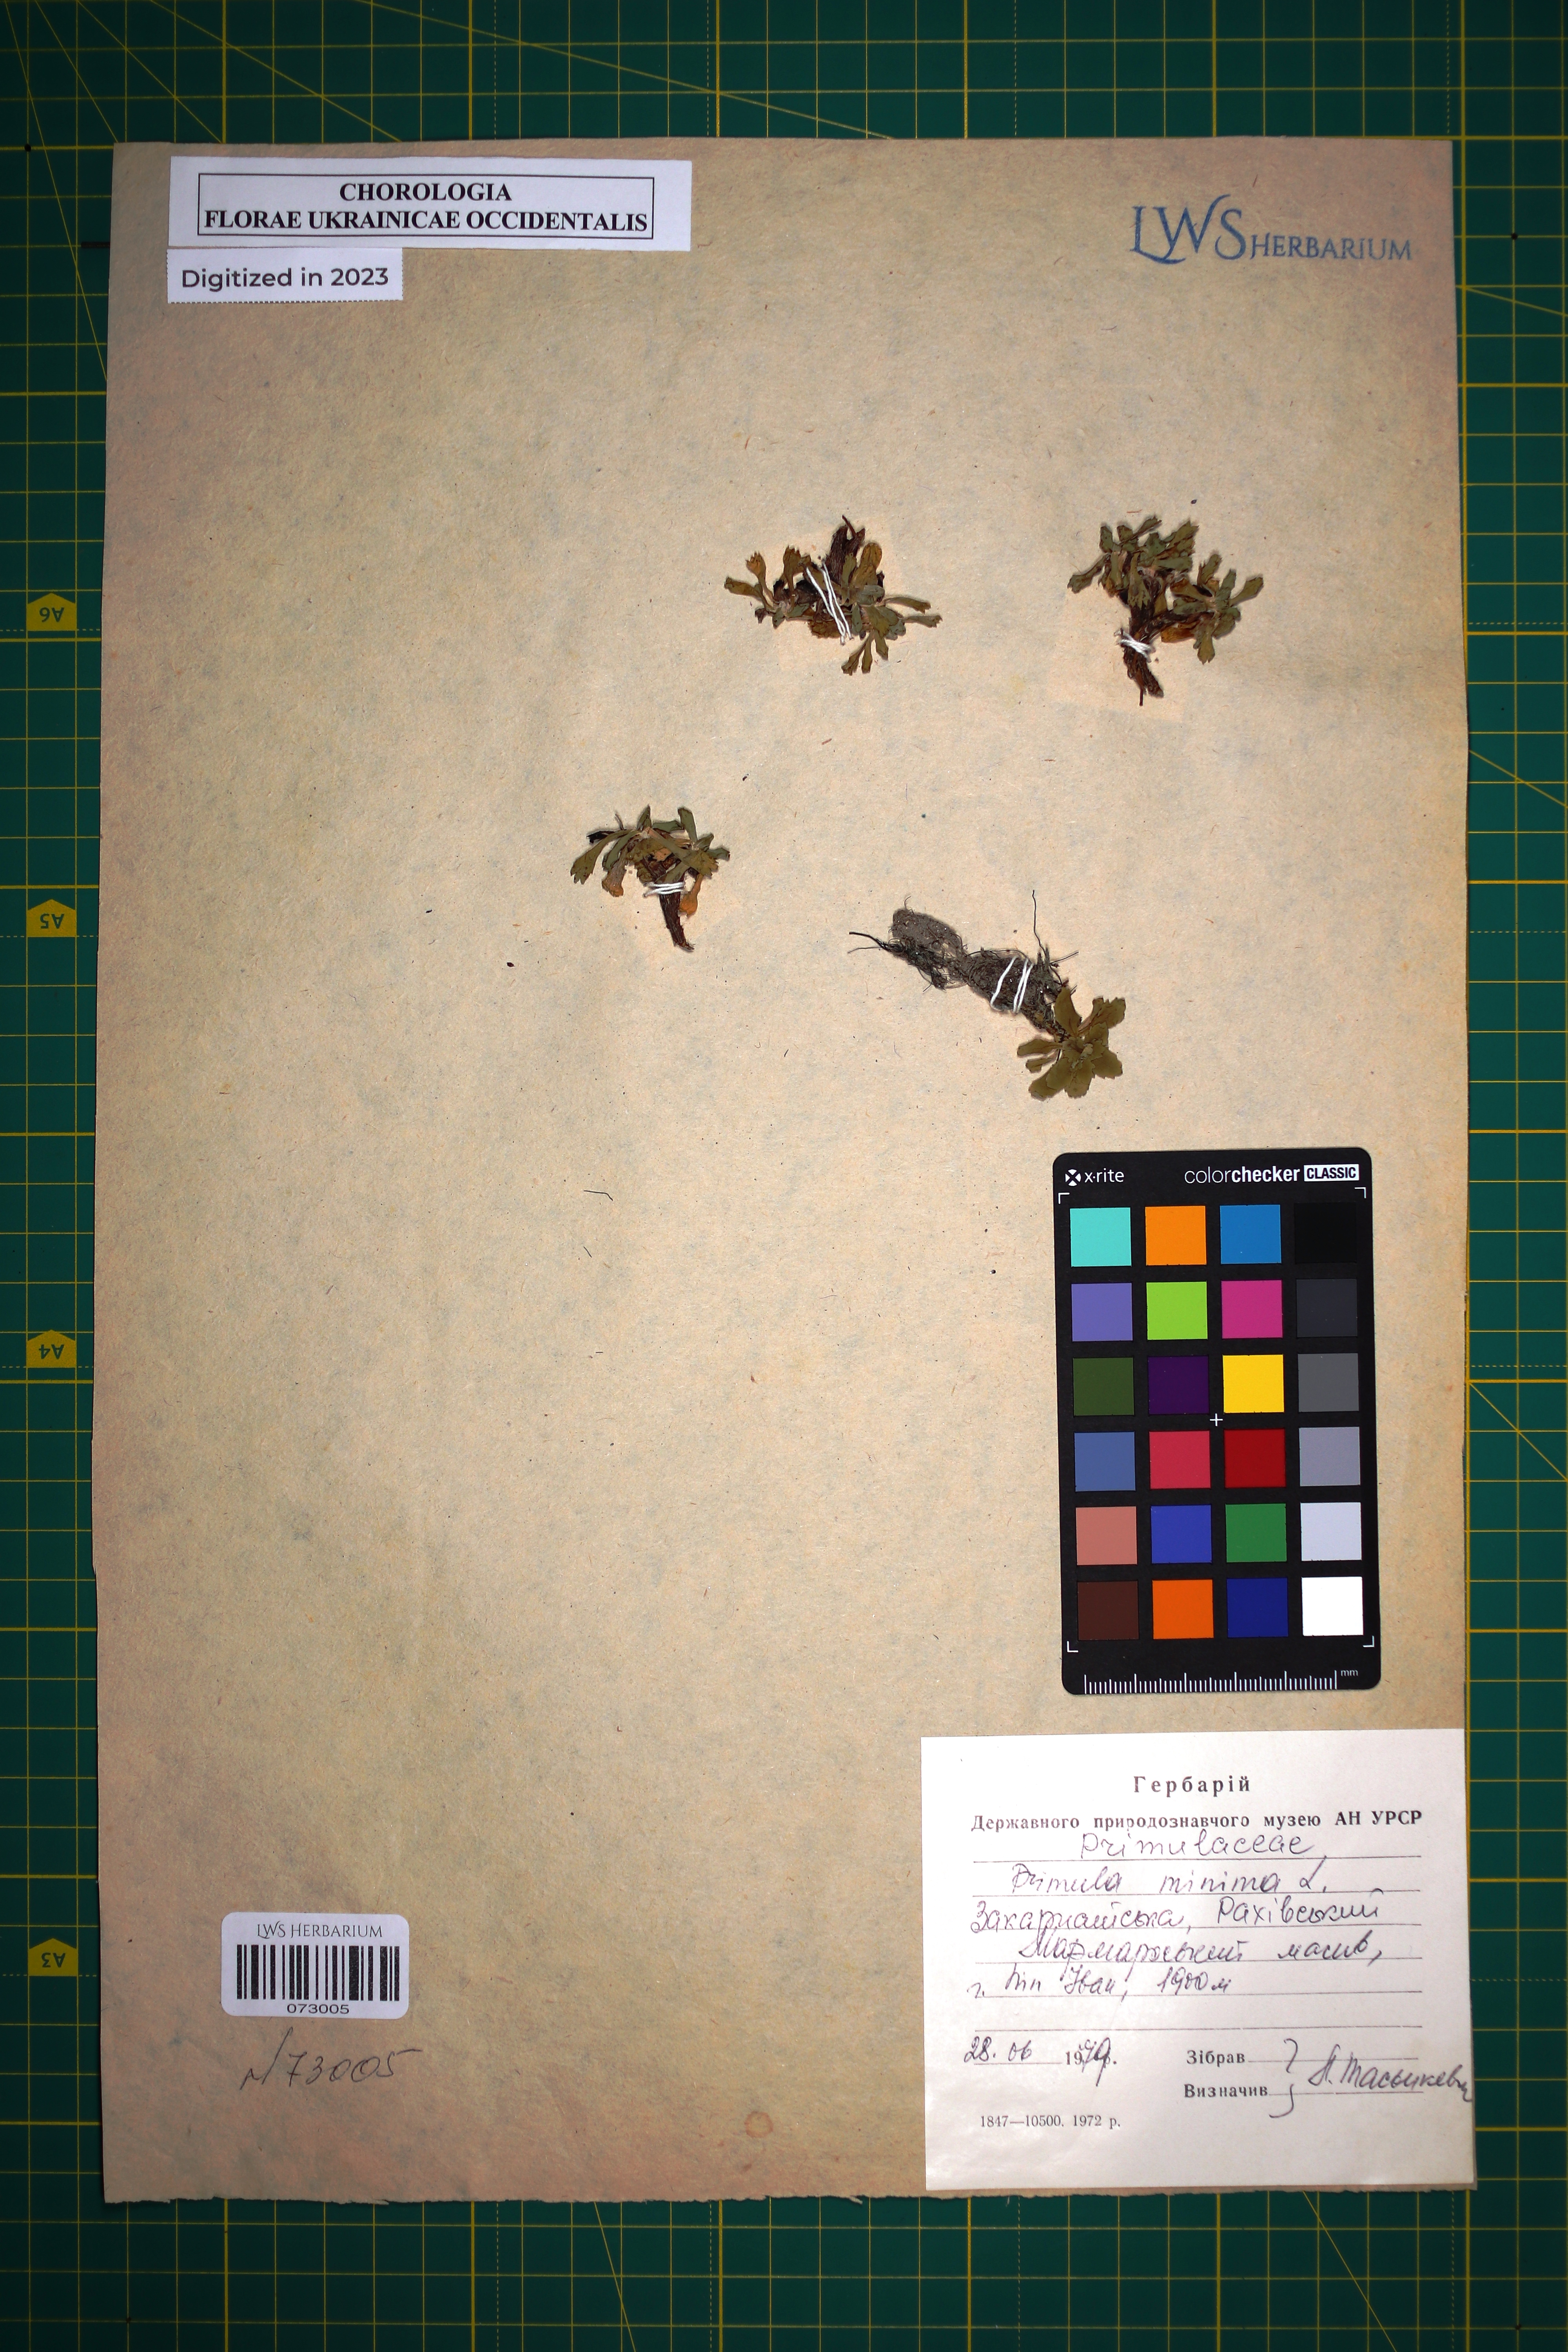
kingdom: Plantae
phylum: Tracheophyta
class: Magnoliopsida
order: Ericales
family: Primulaceae
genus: Primula
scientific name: Primula minima
